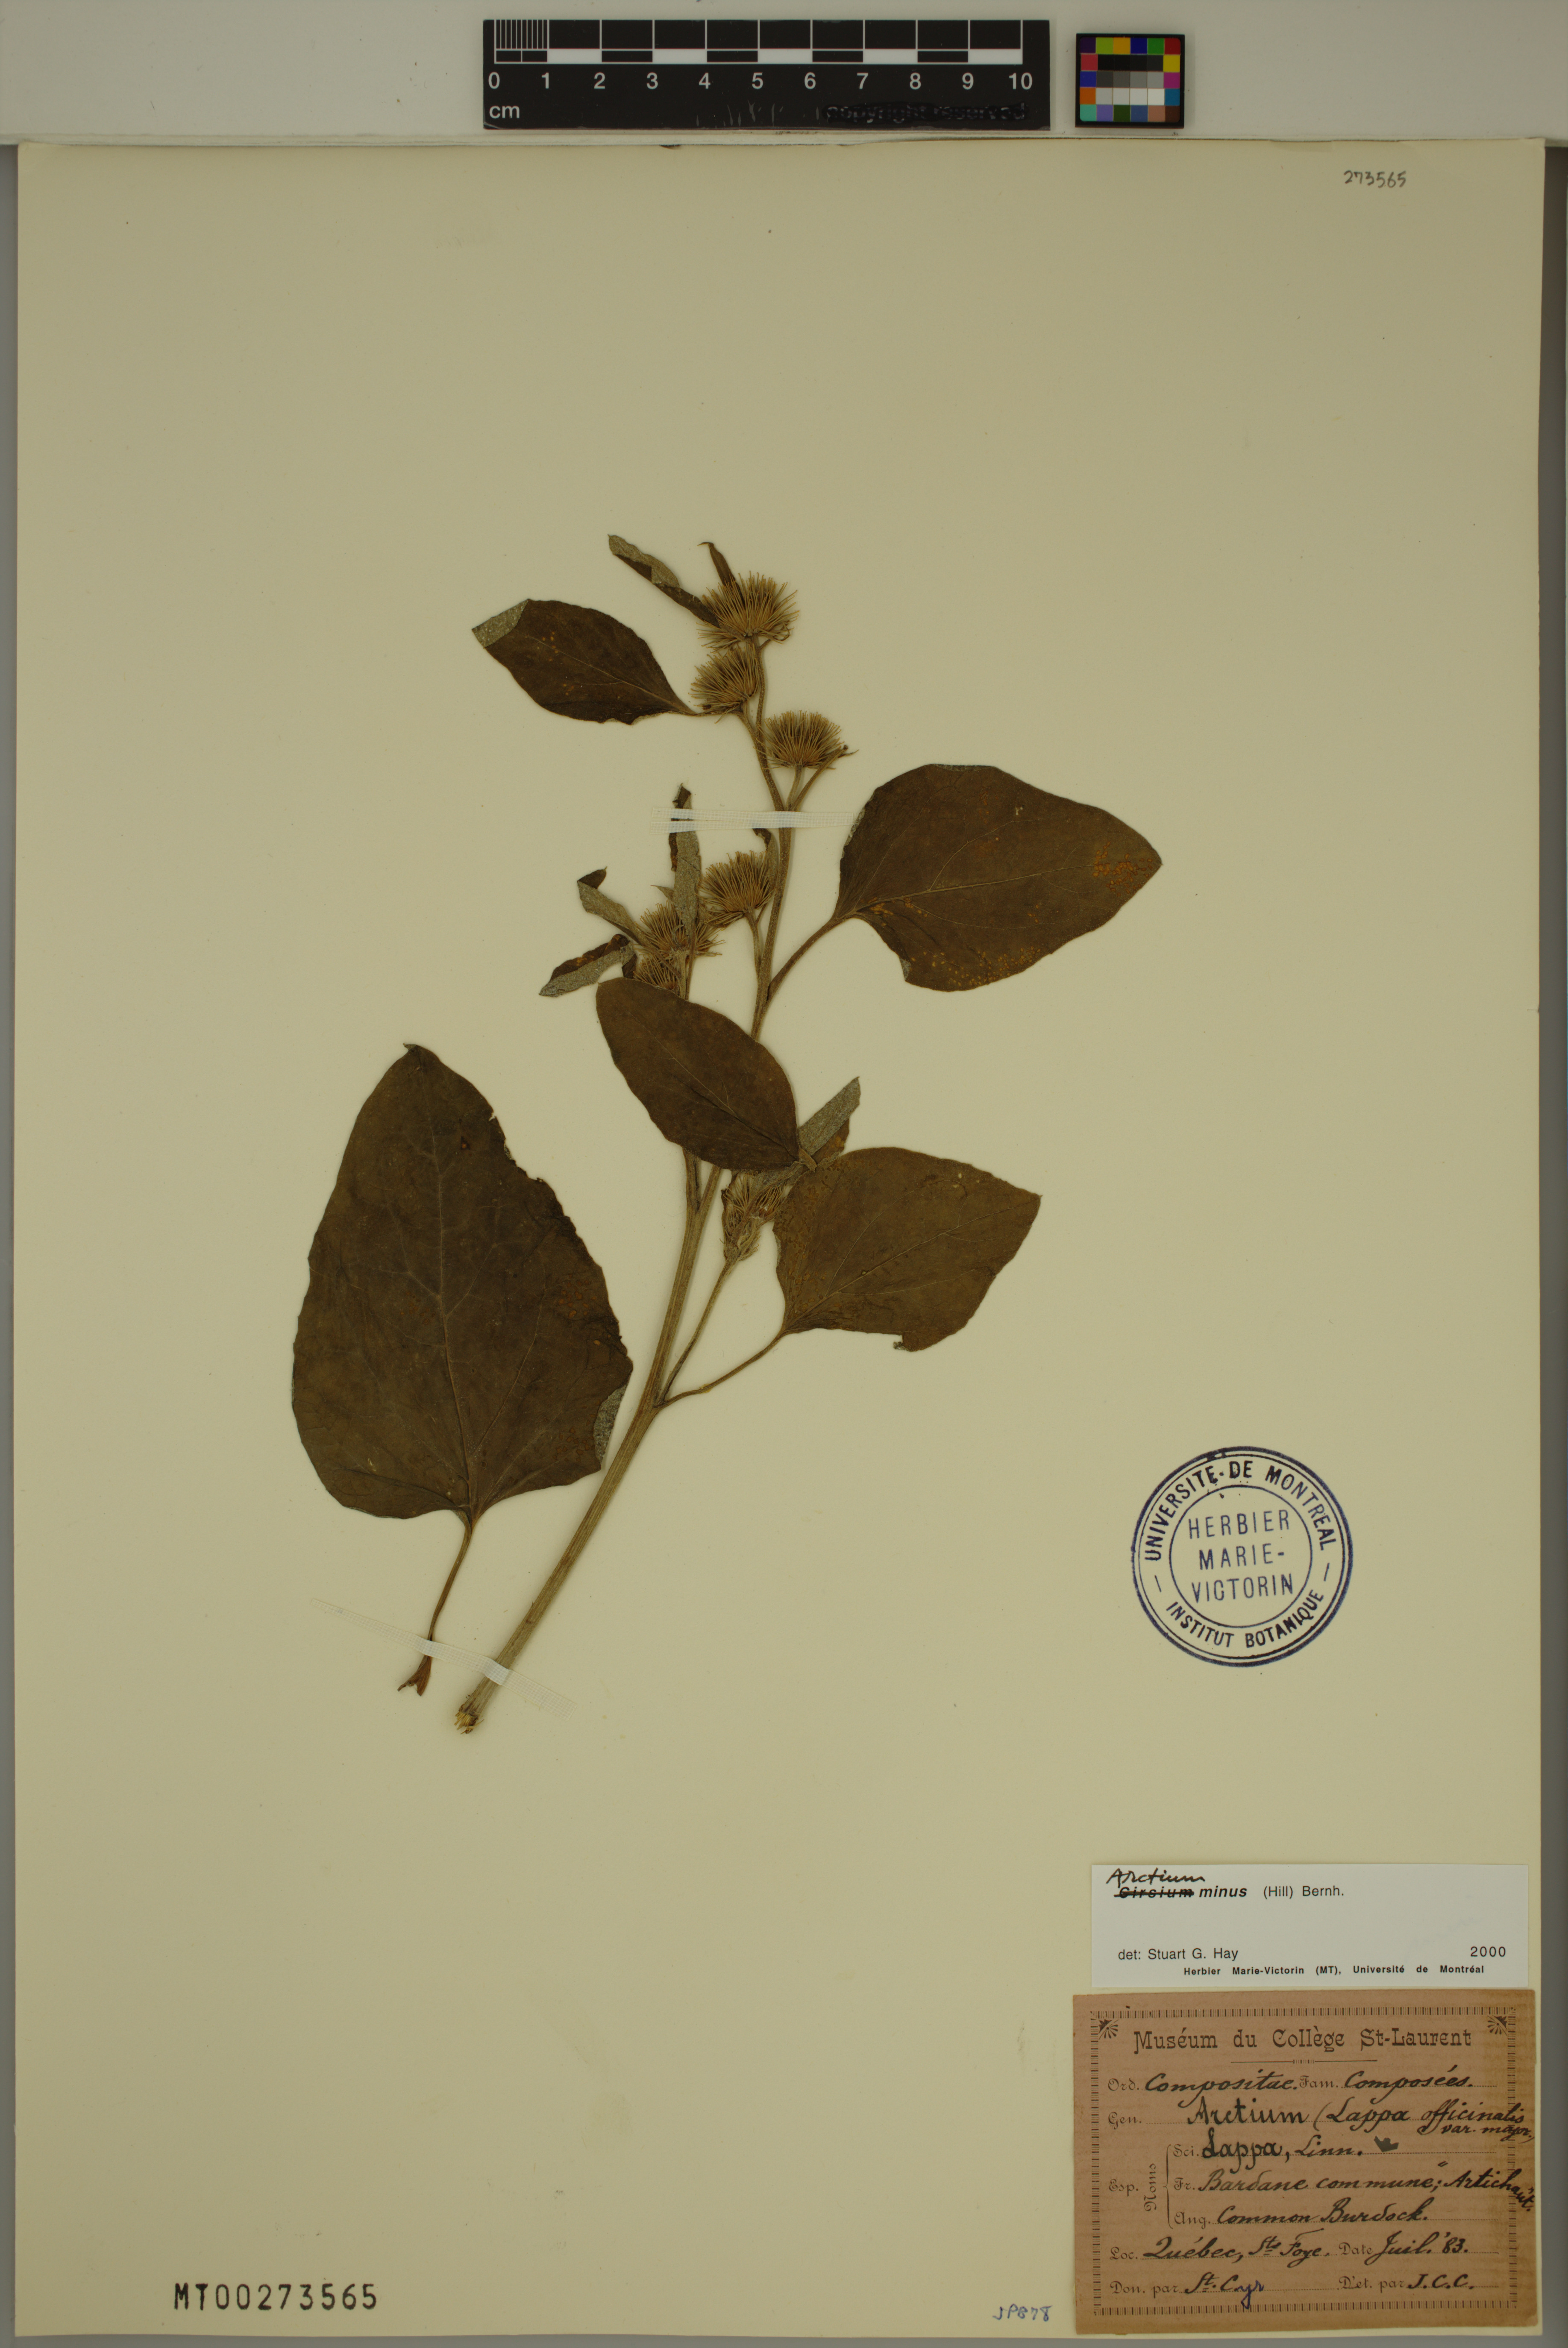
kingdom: Plantae
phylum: Tracheophyta
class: Magnoliopsida
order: Asterales
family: Asteraceae
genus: Arctium
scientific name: Arctium minus
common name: Lesser burdock
